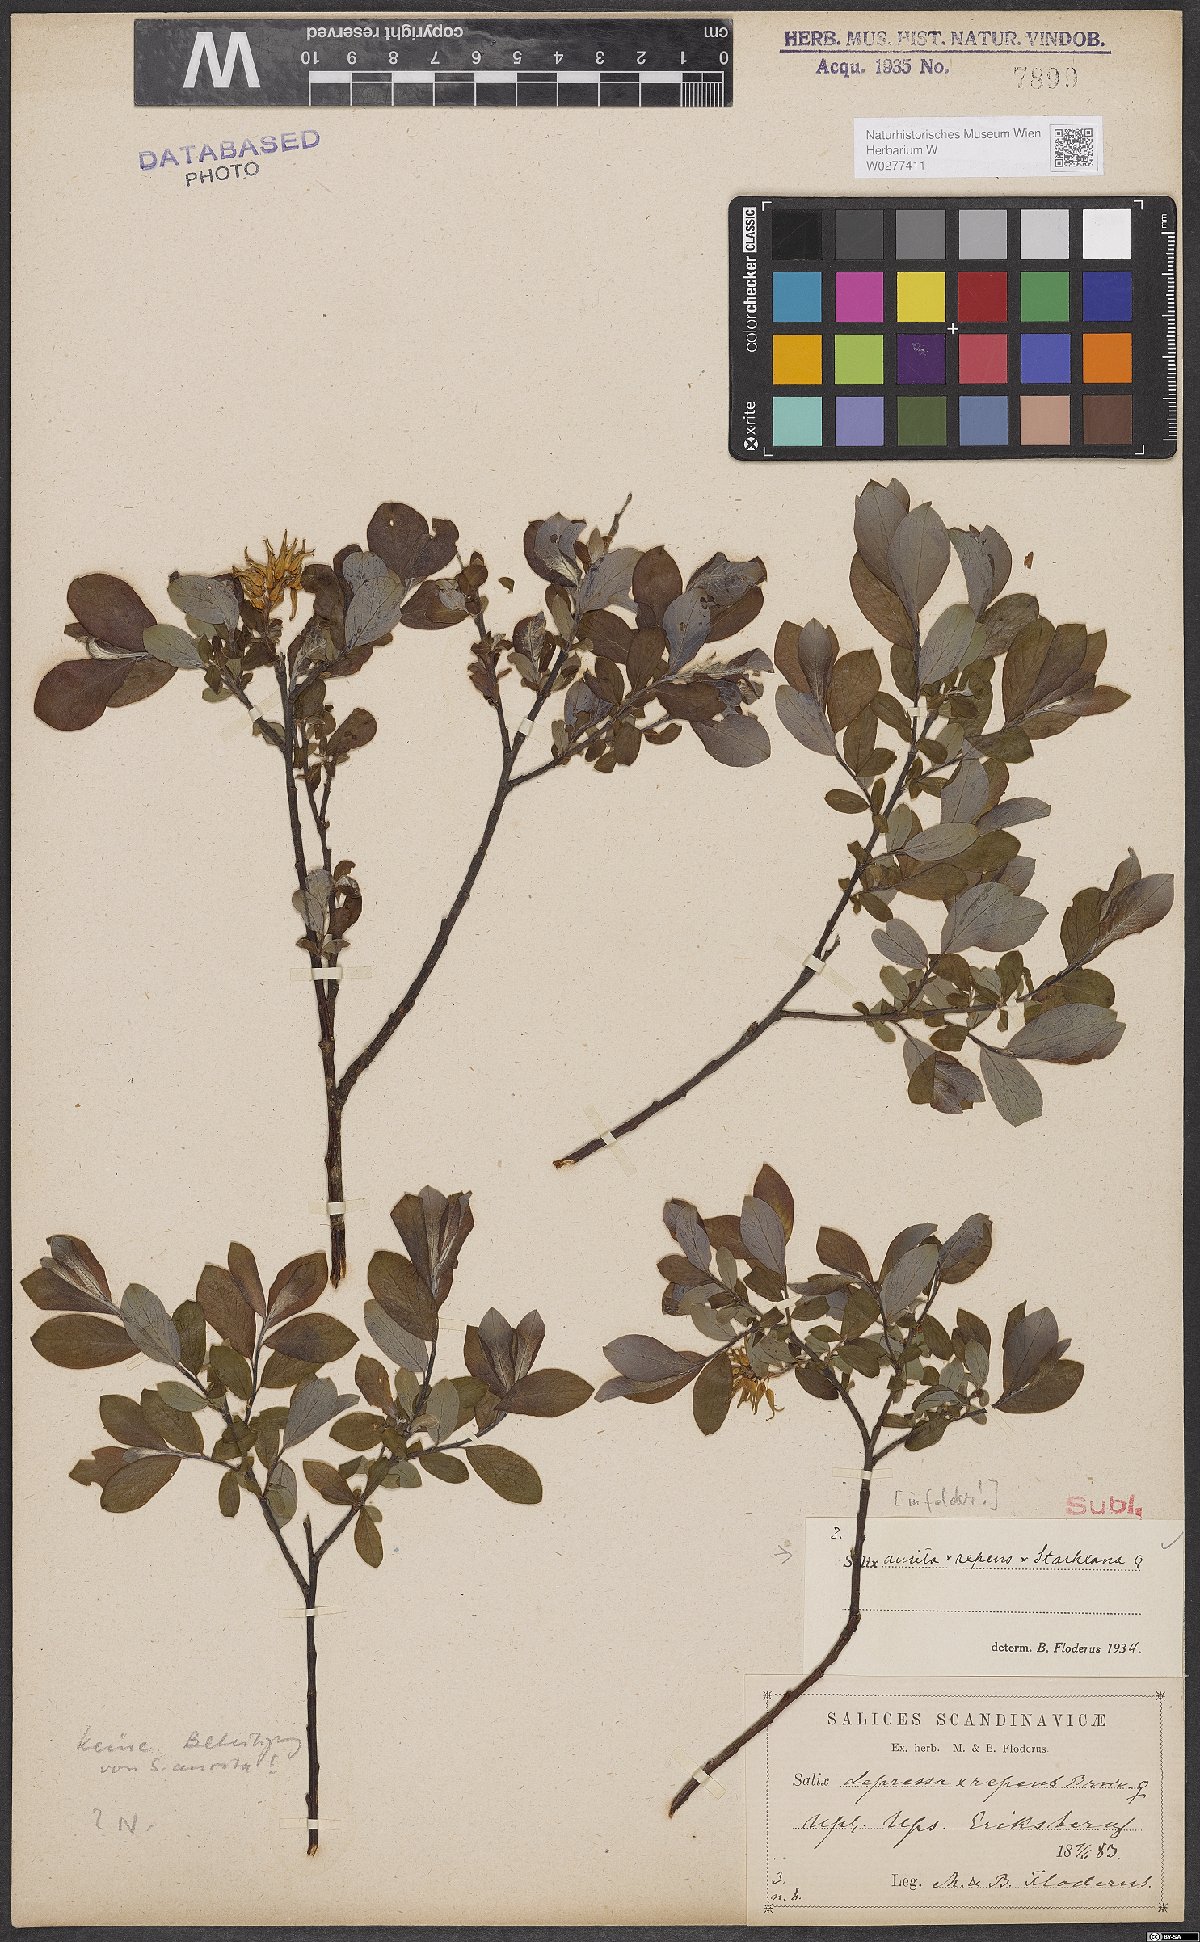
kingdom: Plantae
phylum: Tracheophyta
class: Magnoliopsida
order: Malpighiales
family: Salicaceae
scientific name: Salicaceae
